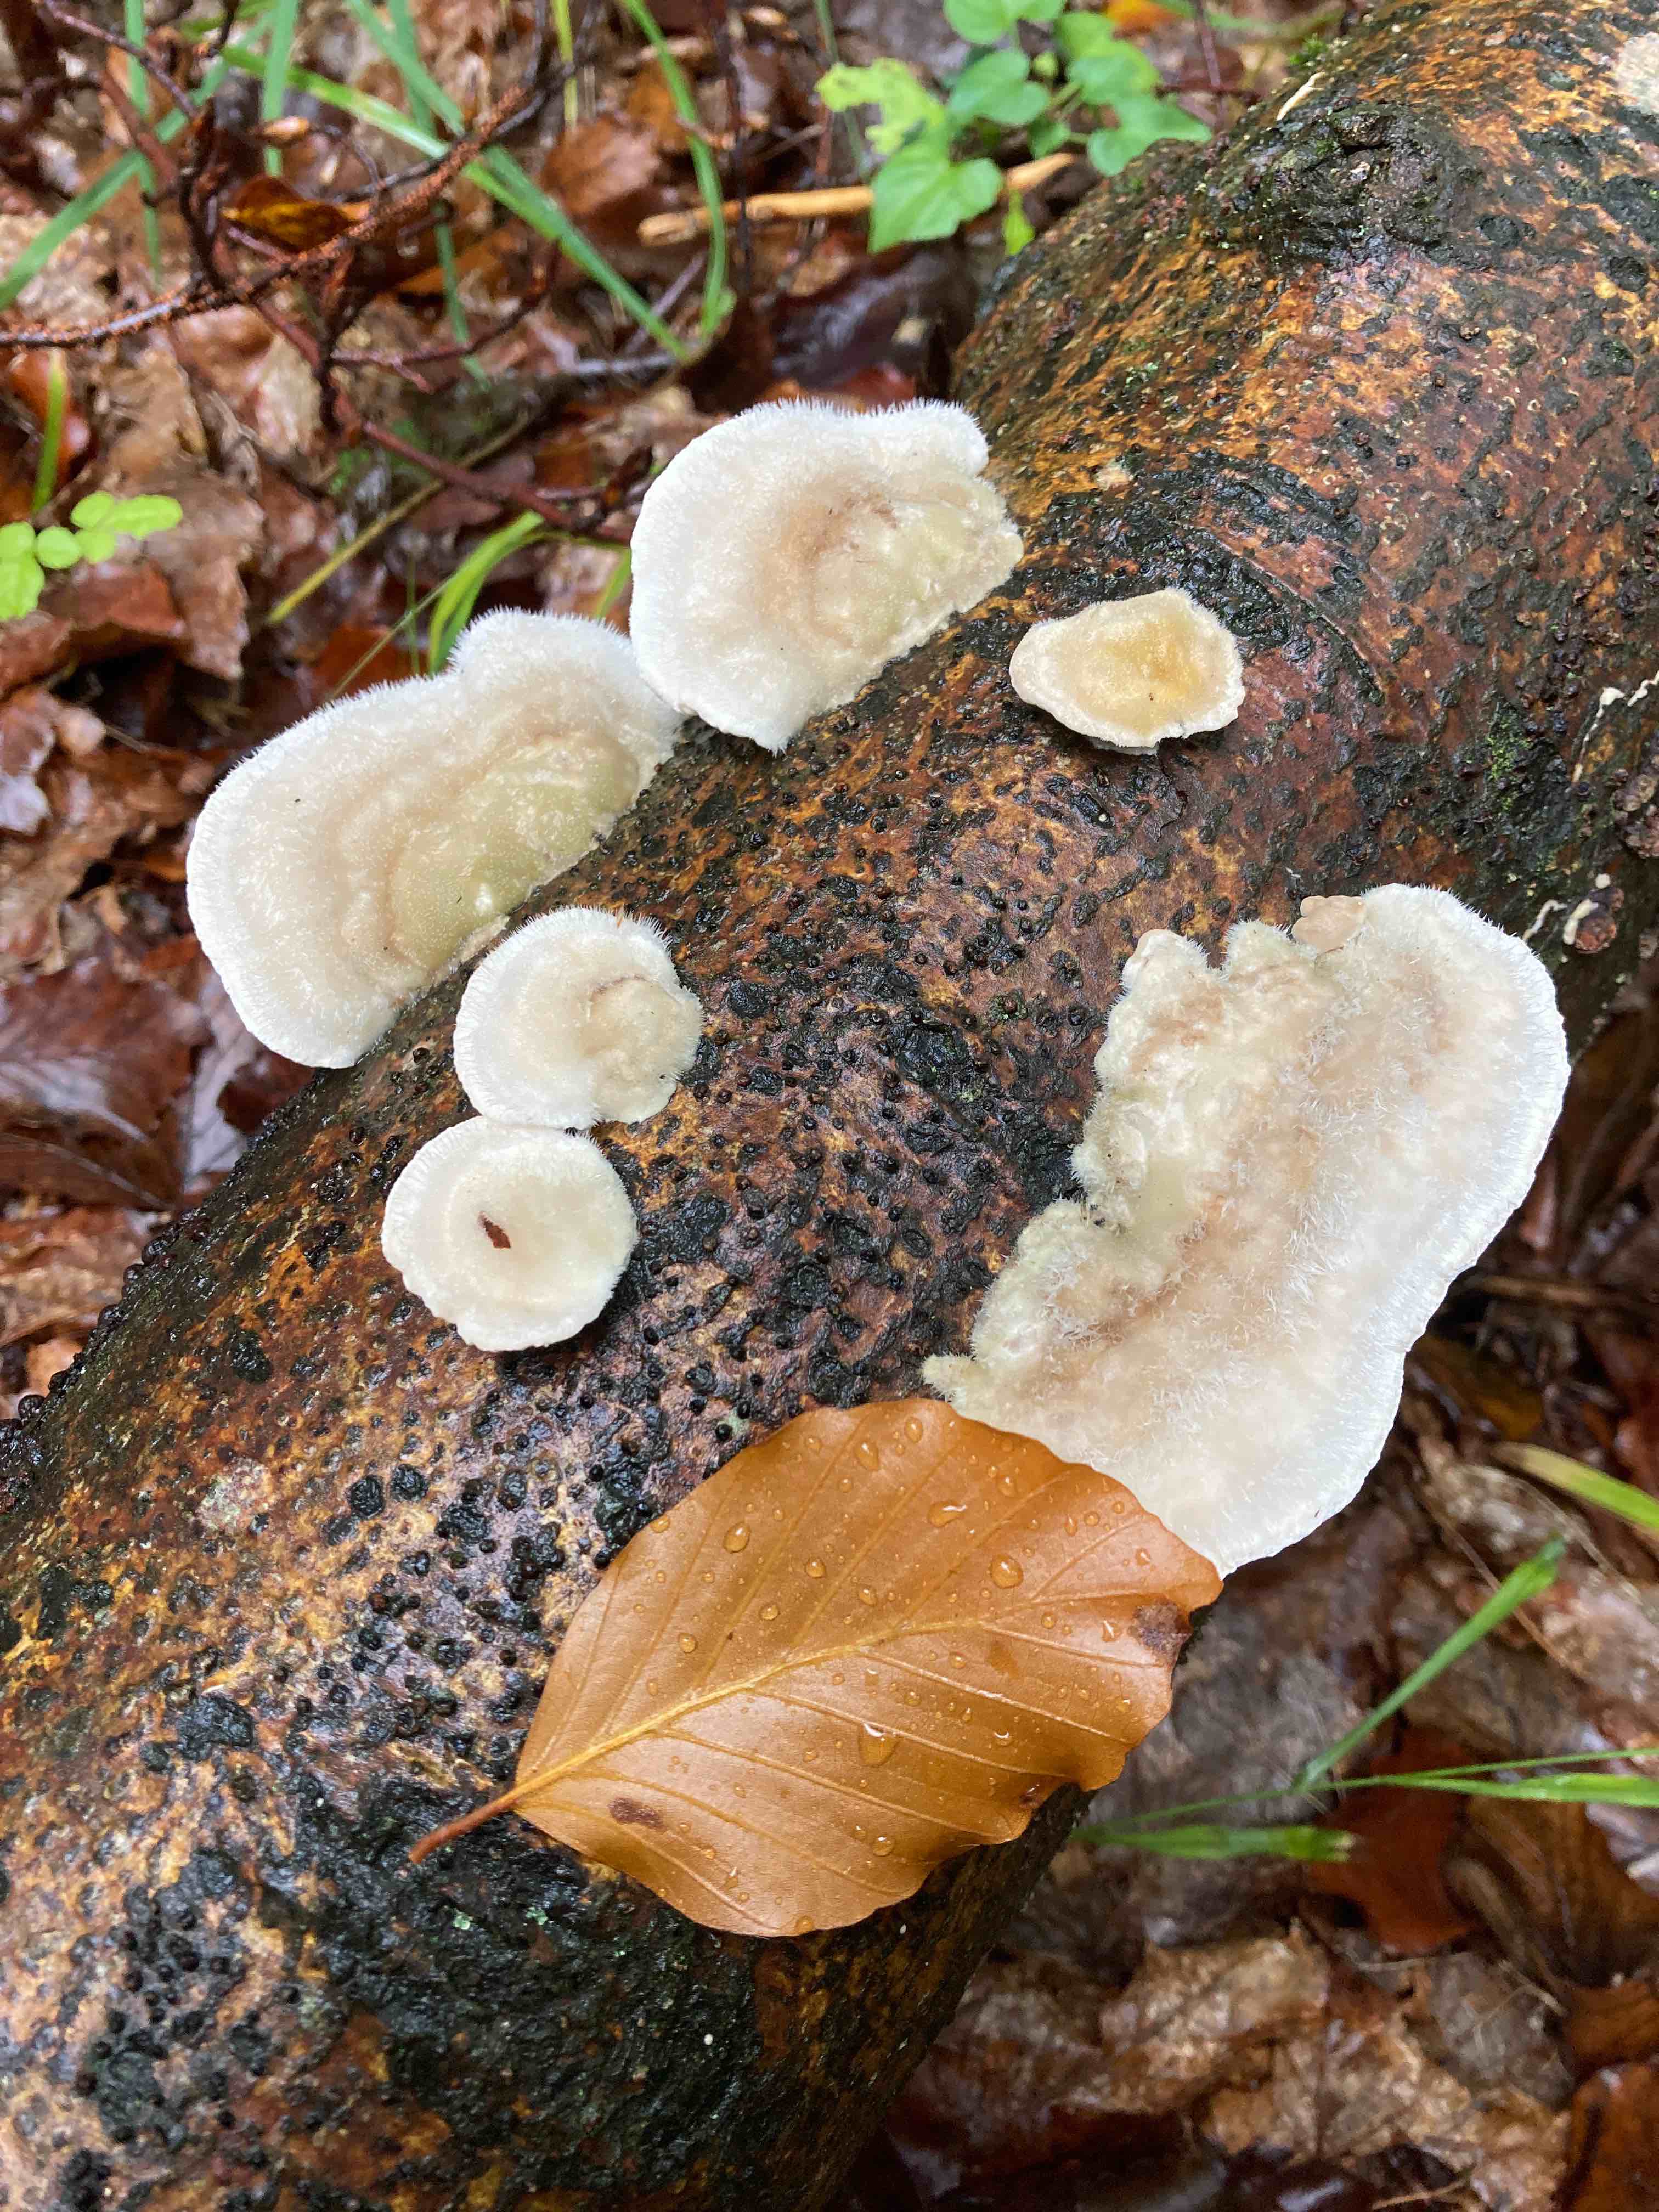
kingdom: Fungi
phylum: Basidiomycota
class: Agaricomycetes
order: Polyporales
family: Polyporaceae
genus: Trametes
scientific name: Trametes hirsuta
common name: håret læderporesvamp
